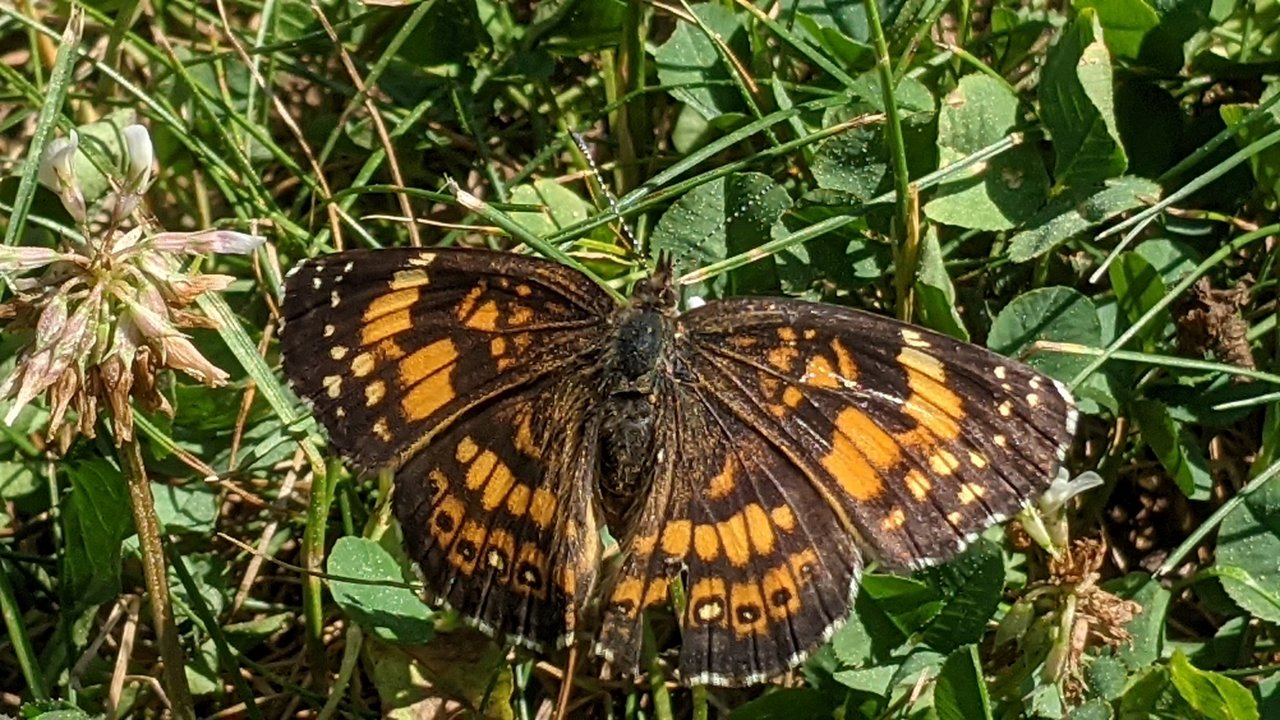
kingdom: Animalia
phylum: Arthropoda
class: Insecta
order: Lepidoptera
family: Nymphalidae
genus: Chlosyne
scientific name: Chlosyne
